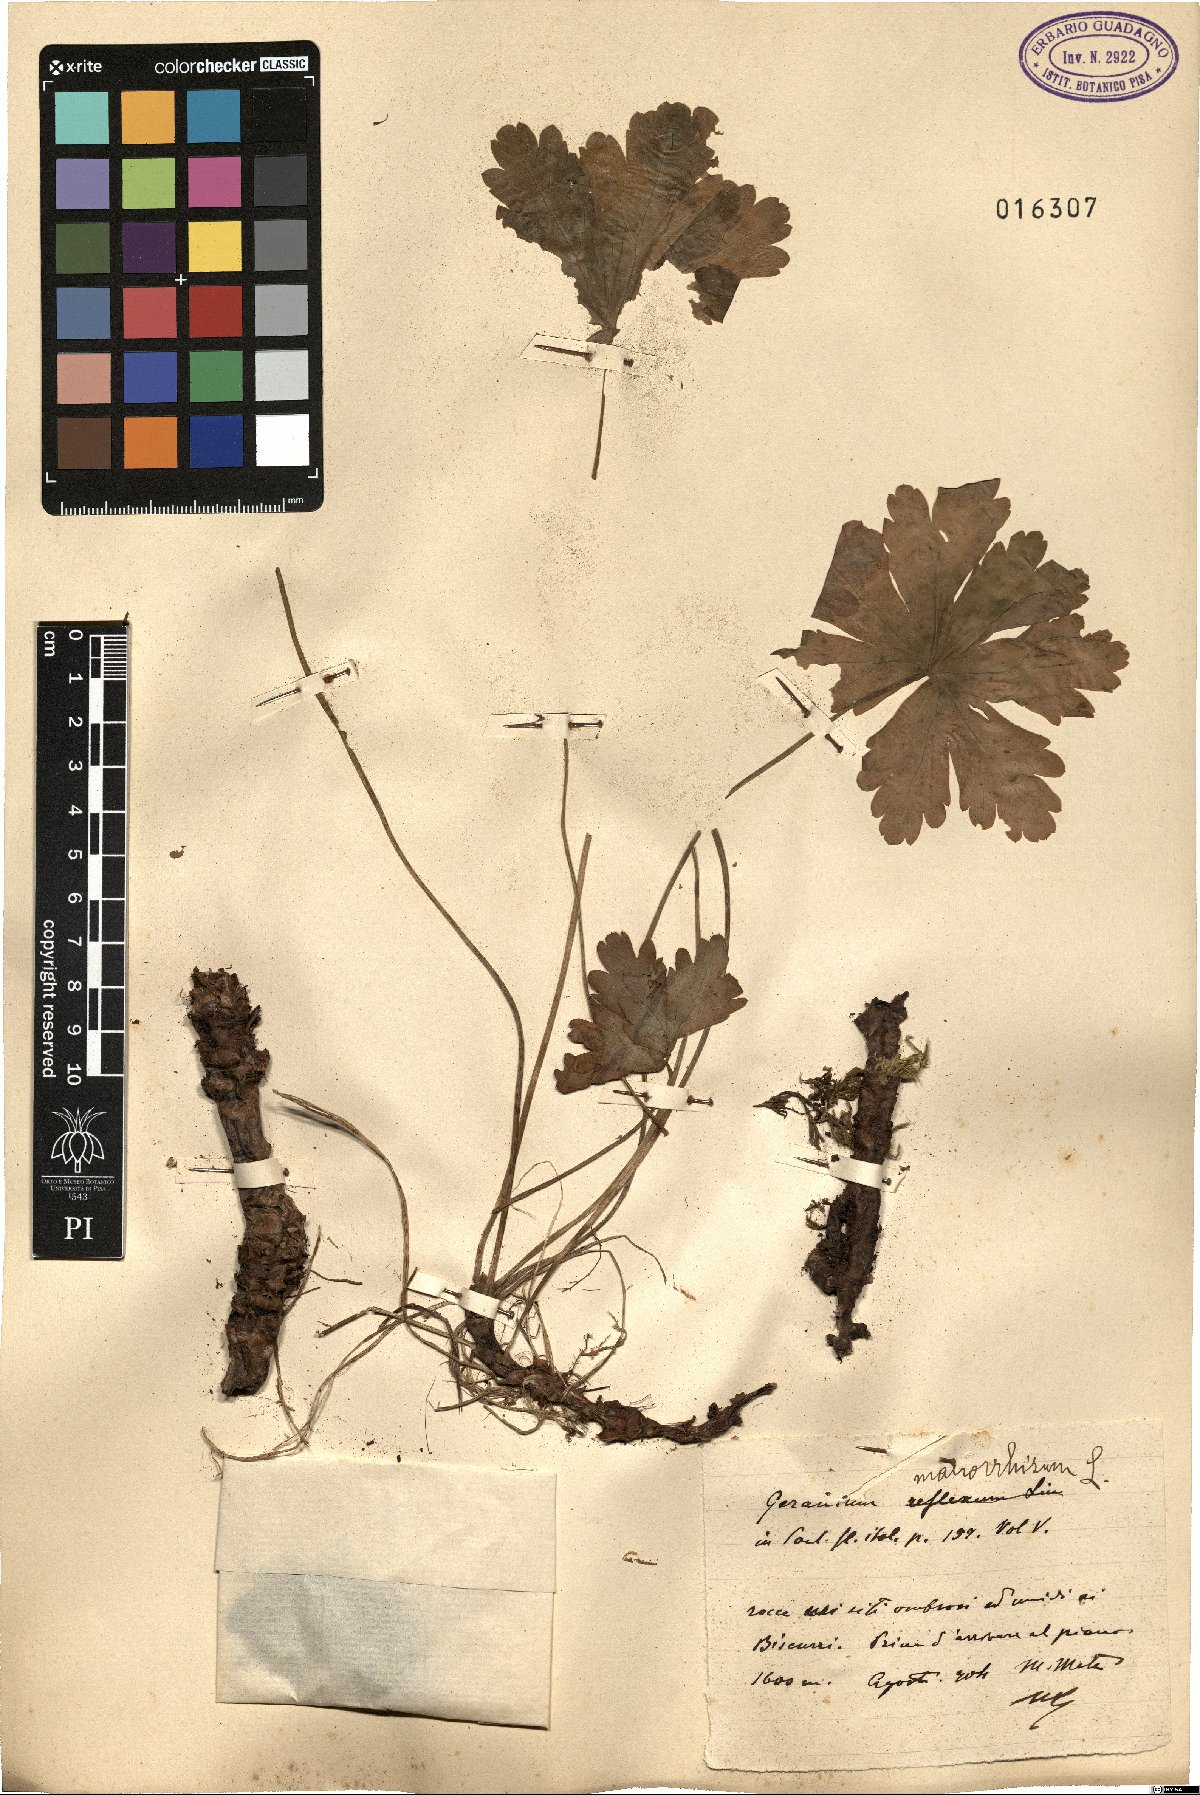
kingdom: Plantae
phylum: Tracheophyta
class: Magnoliopsida
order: Geraniales
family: Geraniaceae
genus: Geranium
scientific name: Geranium macrorrhizum
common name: Rock crane's-bill
